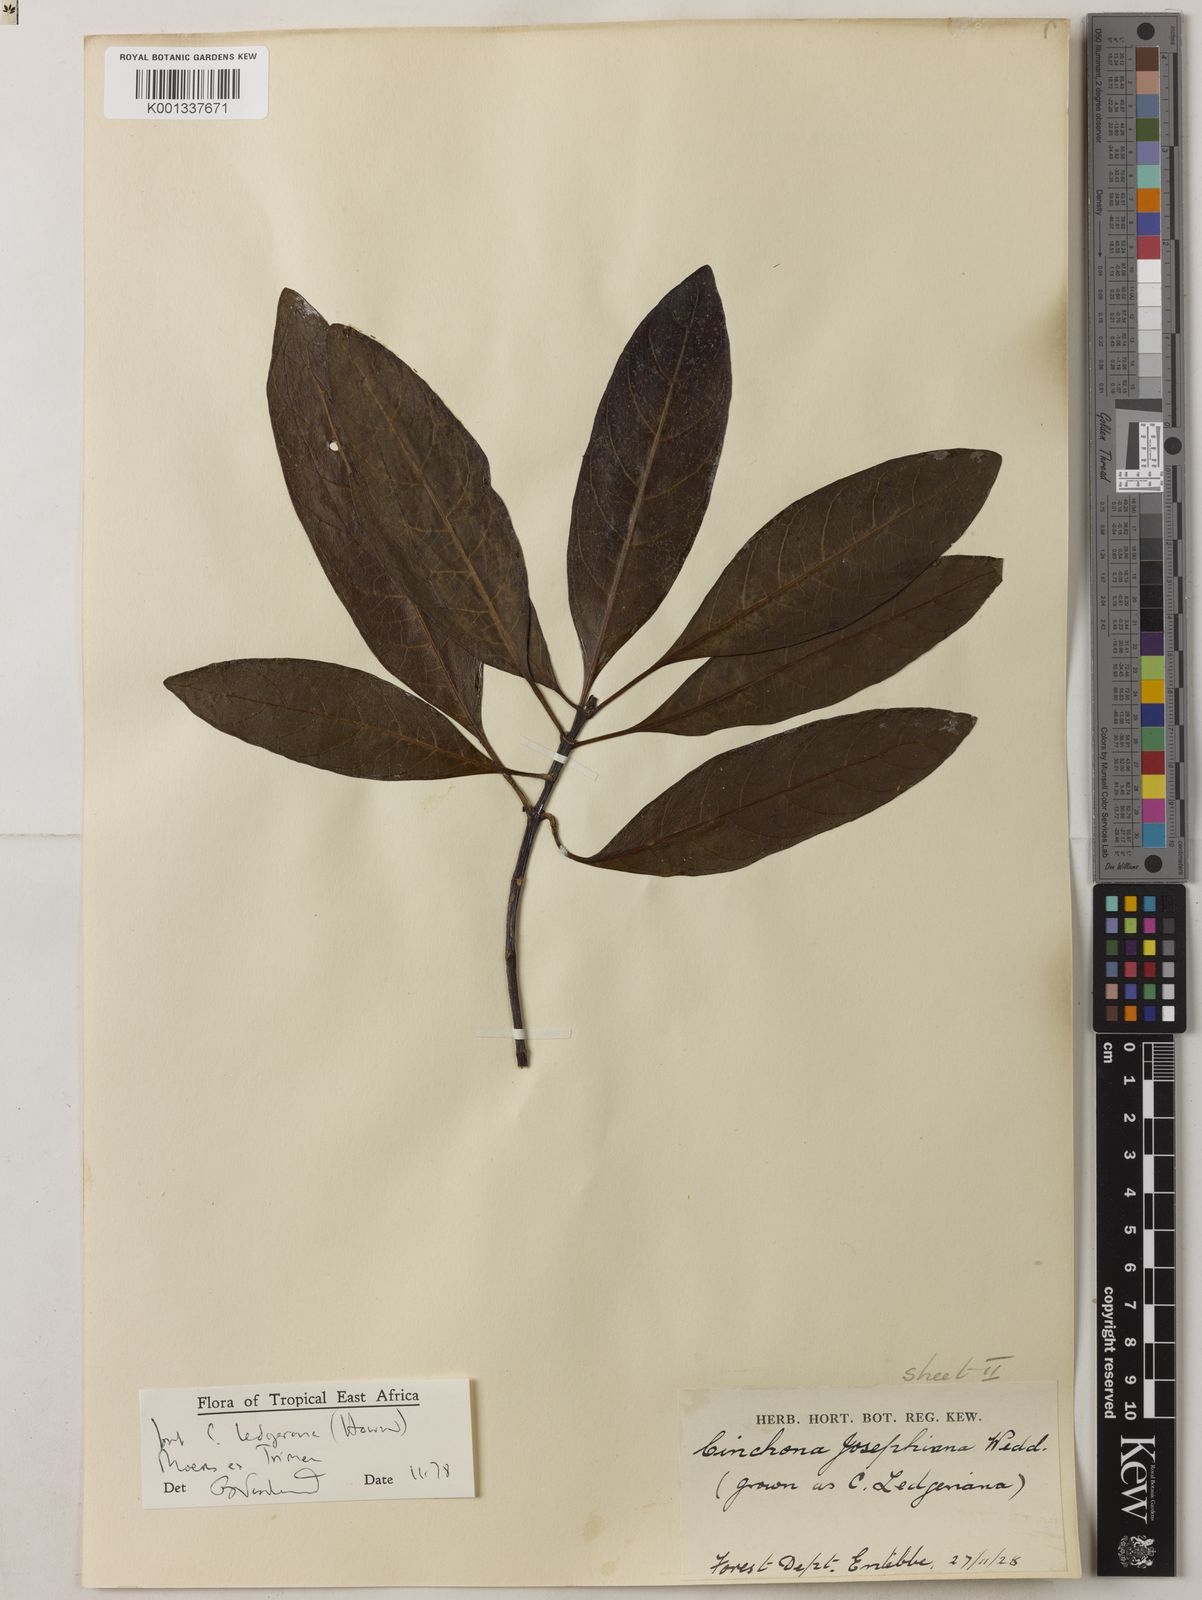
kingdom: Plantae
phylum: Tracheophyta
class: Magnoliopsida
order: Gentianales
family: Rubiaceae
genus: Cinchona
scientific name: Cinchona officinalis
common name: Lojabark
